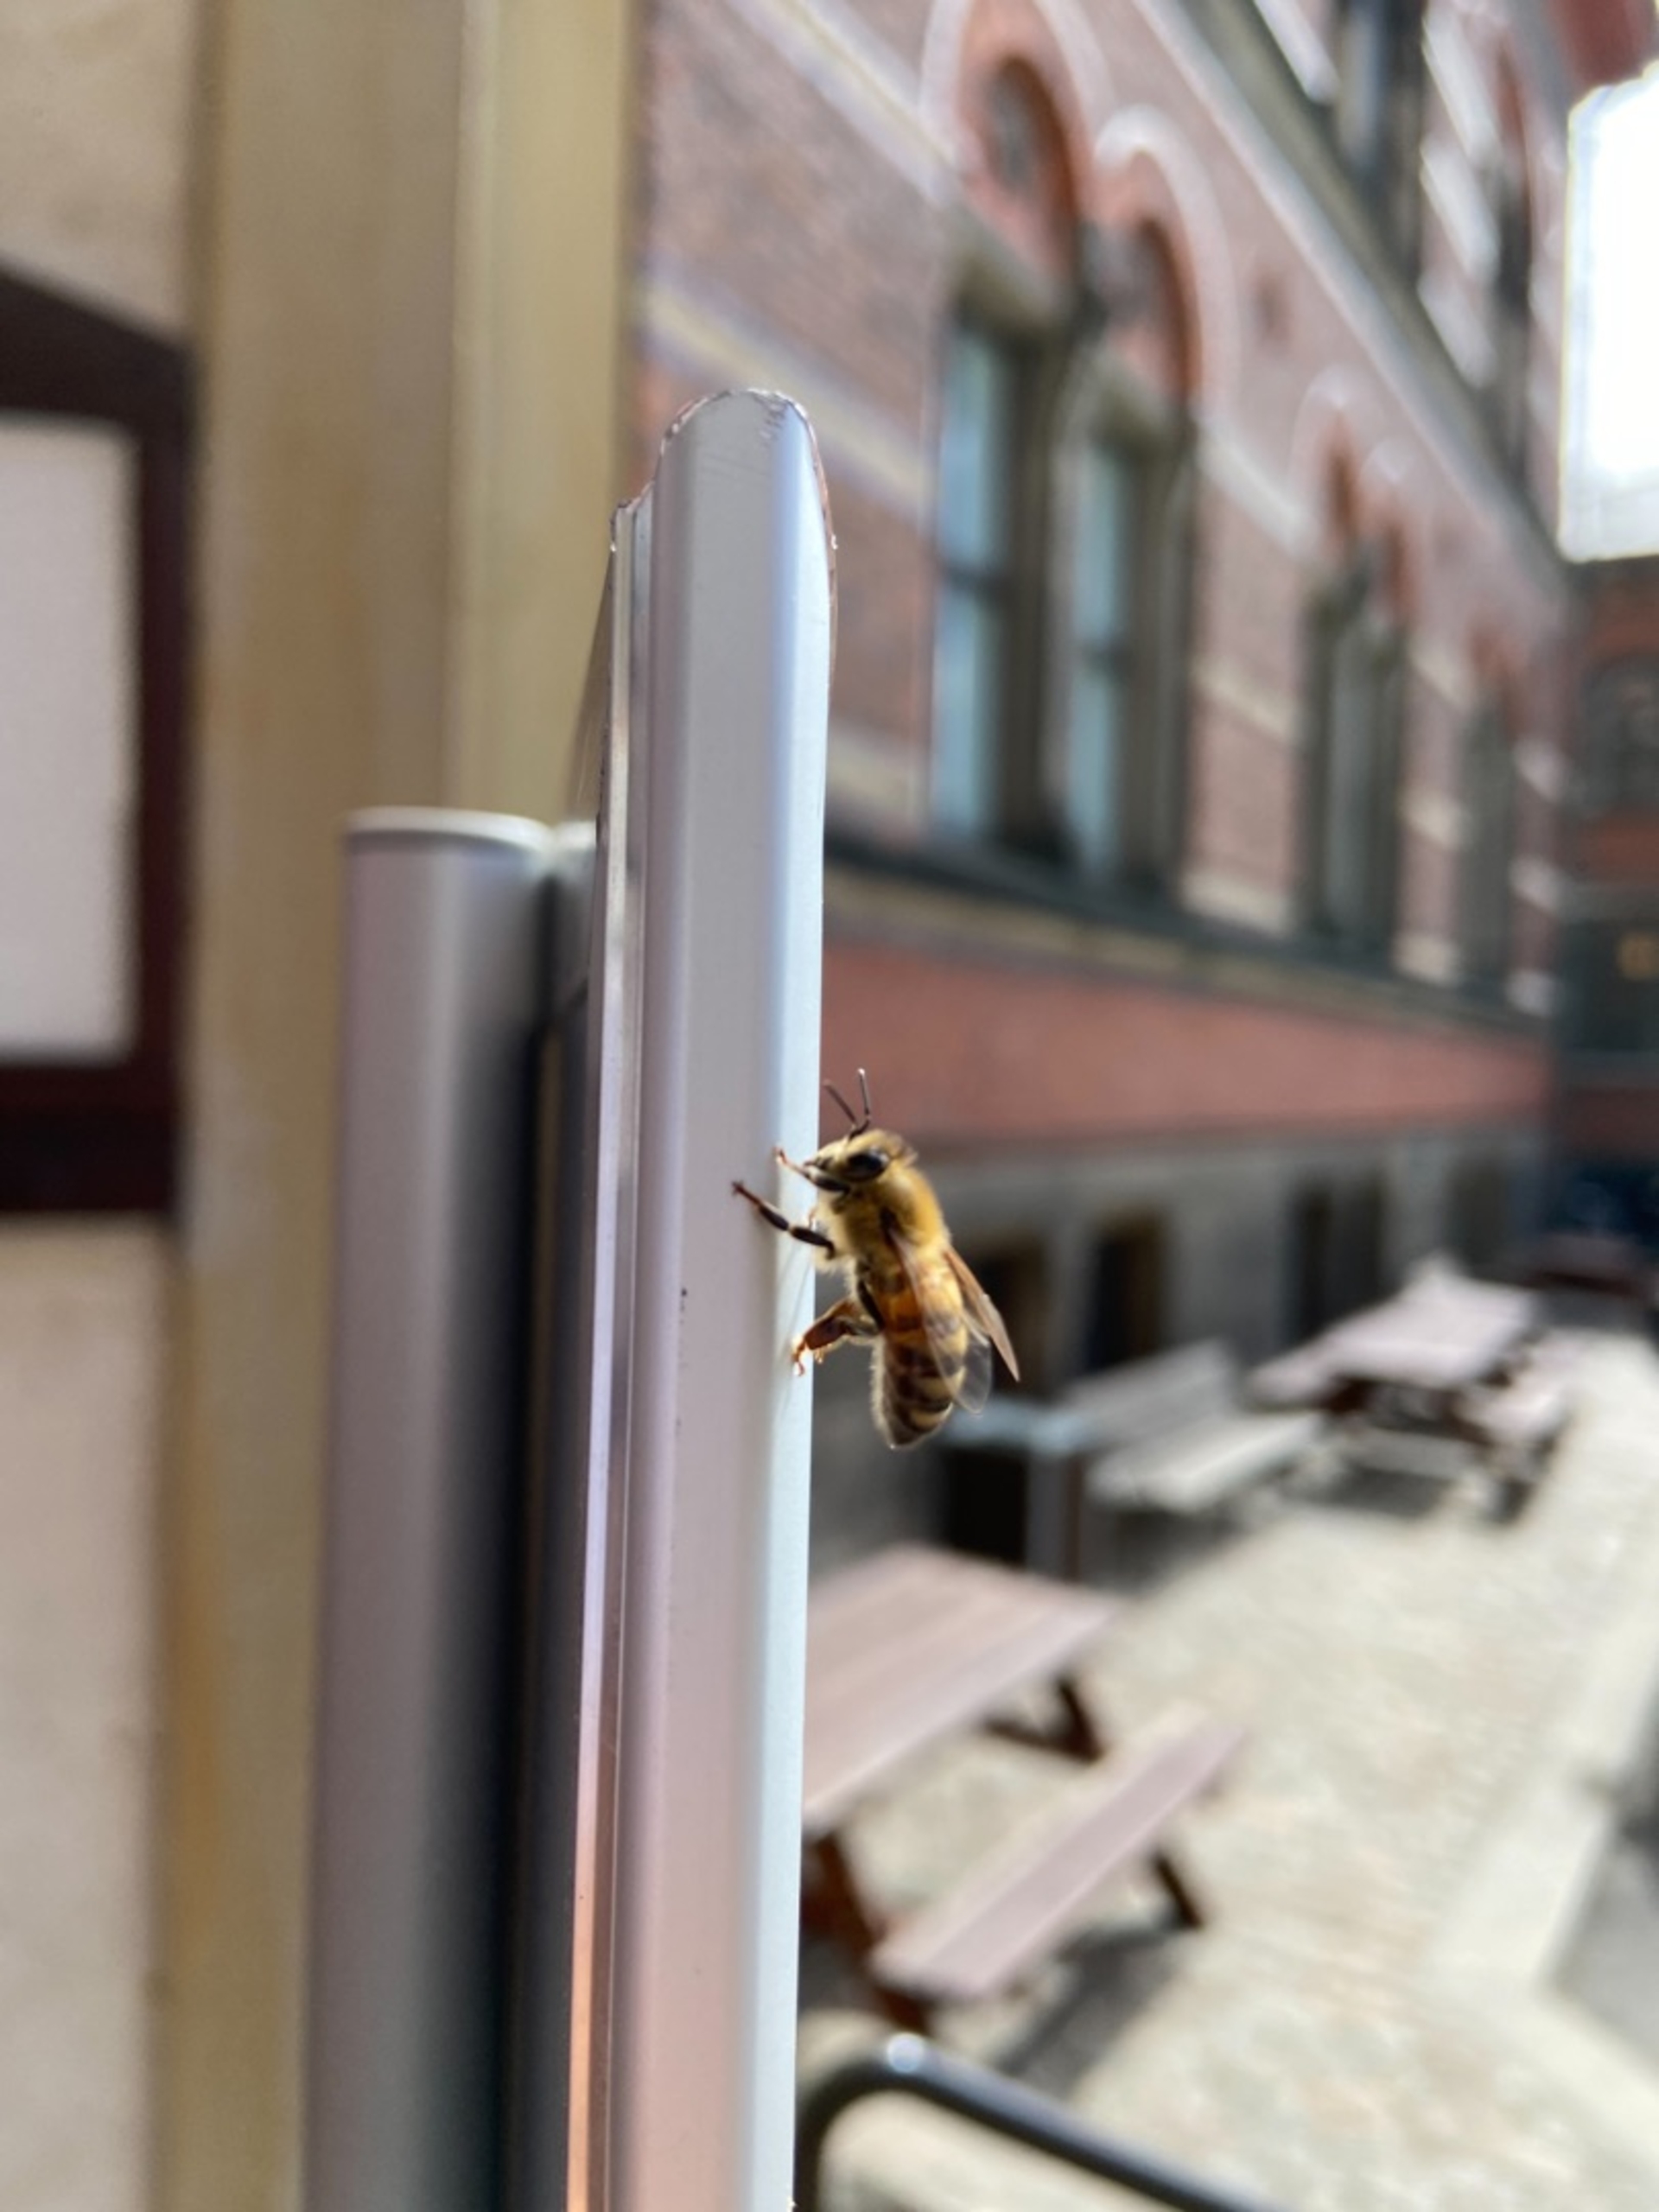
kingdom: Animalia
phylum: Arthropoda
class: Insecta
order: Hymenoptera
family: Apidae
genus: Apis
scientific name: Apis mellifera
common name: Honningbi
